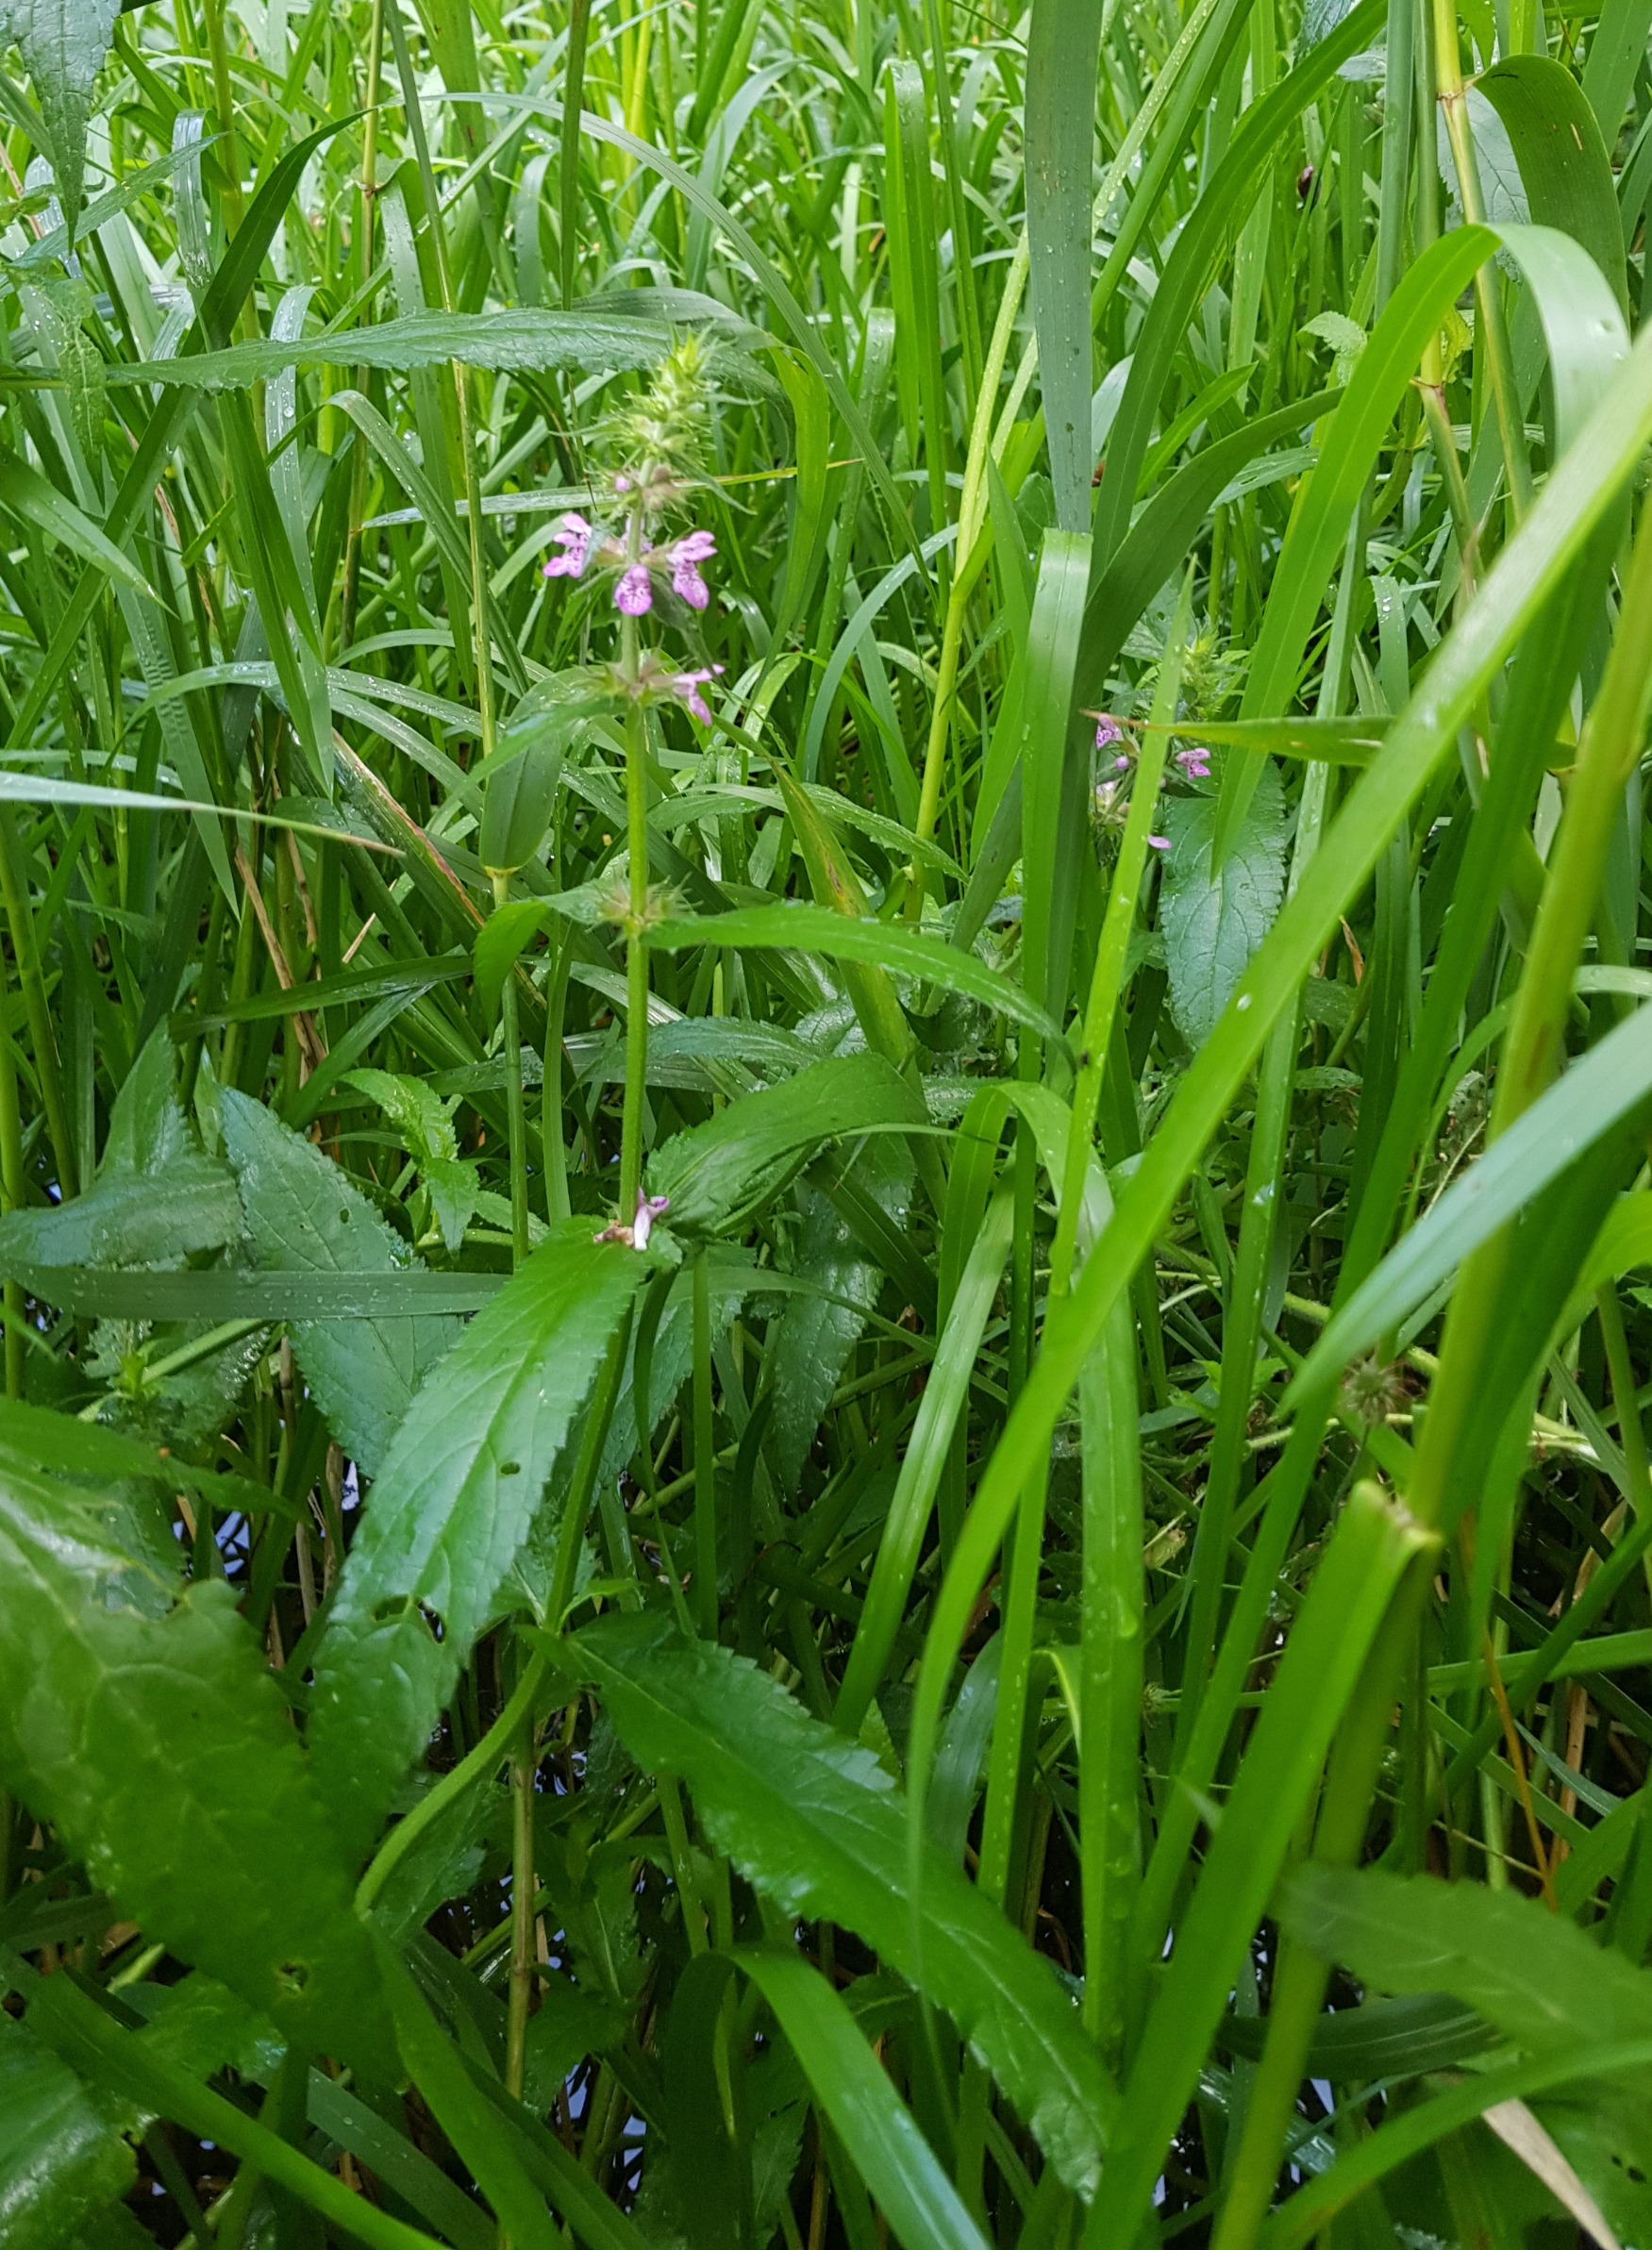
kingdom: Plantae
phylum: Tracheophyta
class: Magnoliopsida
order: Lamiales
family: Lamiaceae
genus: Stachys
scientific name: Stachys palustris
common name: Kær-galtetand
